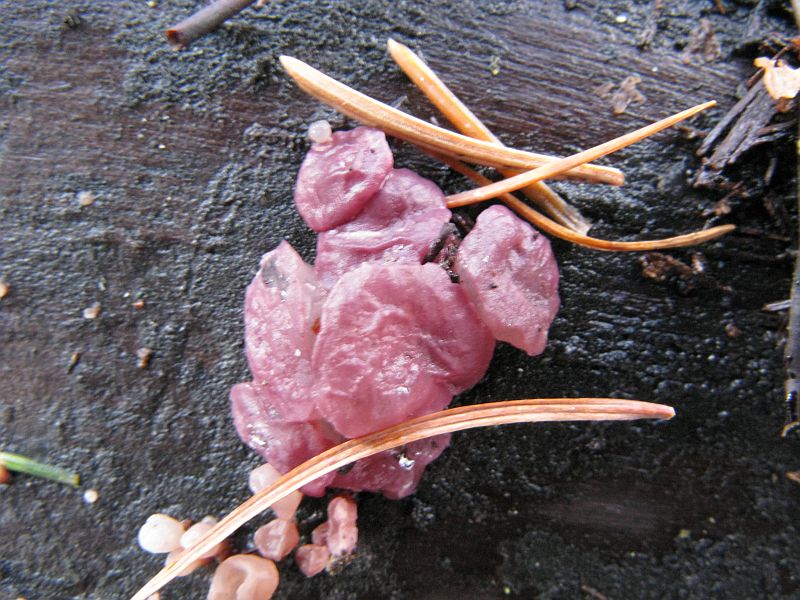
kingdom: Fungi
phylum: Ascomycota
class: Leotiomycetes
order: Helotiales
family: Gelatinodiscaceae
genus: Ascocoryne
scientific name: Ascocoryne cylichnium
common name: stor sejskive
